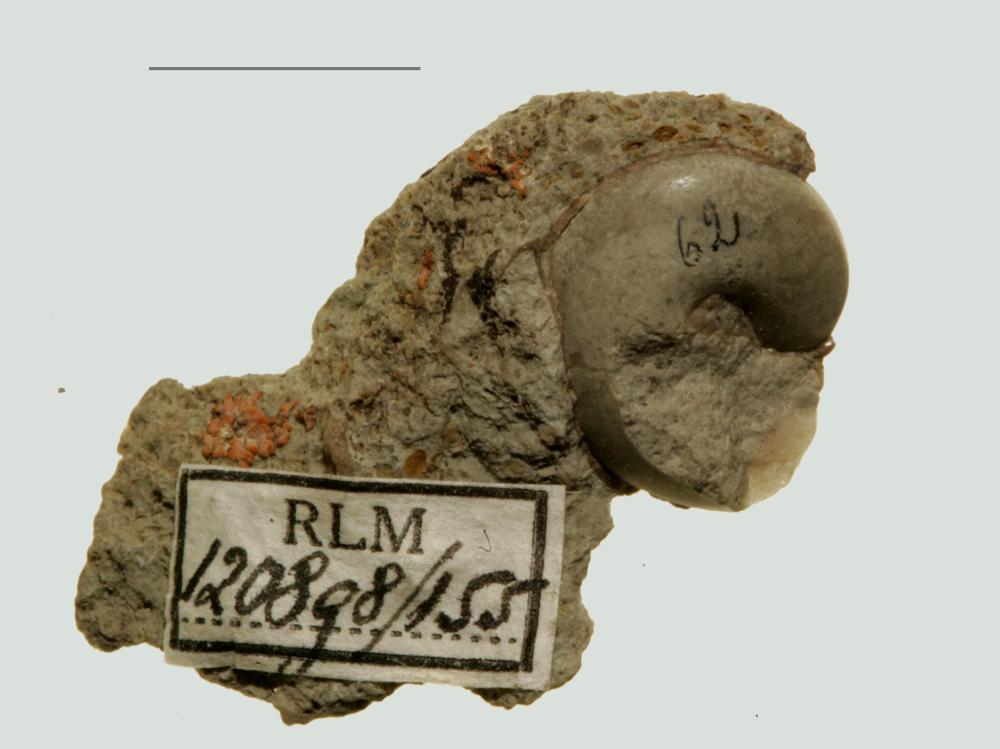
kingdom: Animalia
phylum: Mollusca
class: Gastropoda
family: Lophospiridae
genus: Lophospira
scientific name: Lophospira Worthenia mickwitzi
